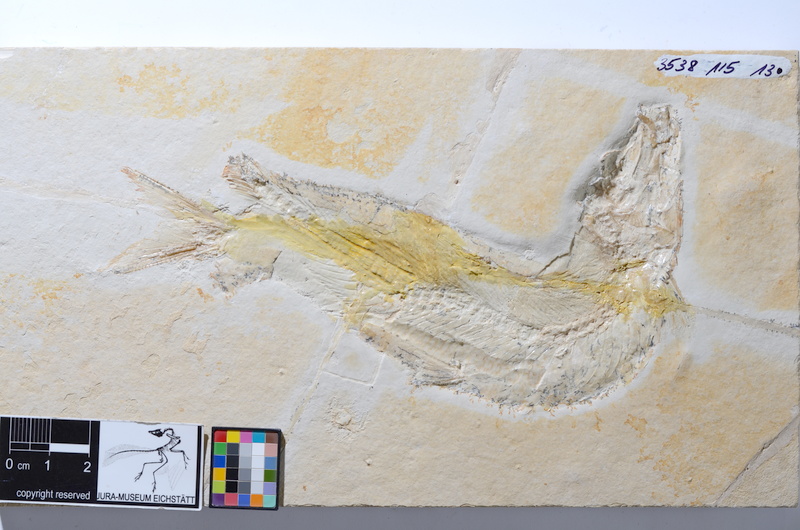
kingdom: Animalia
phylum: Chordata
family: Ascalaboidae
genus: Tharsis
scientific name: Tharsis dubius
